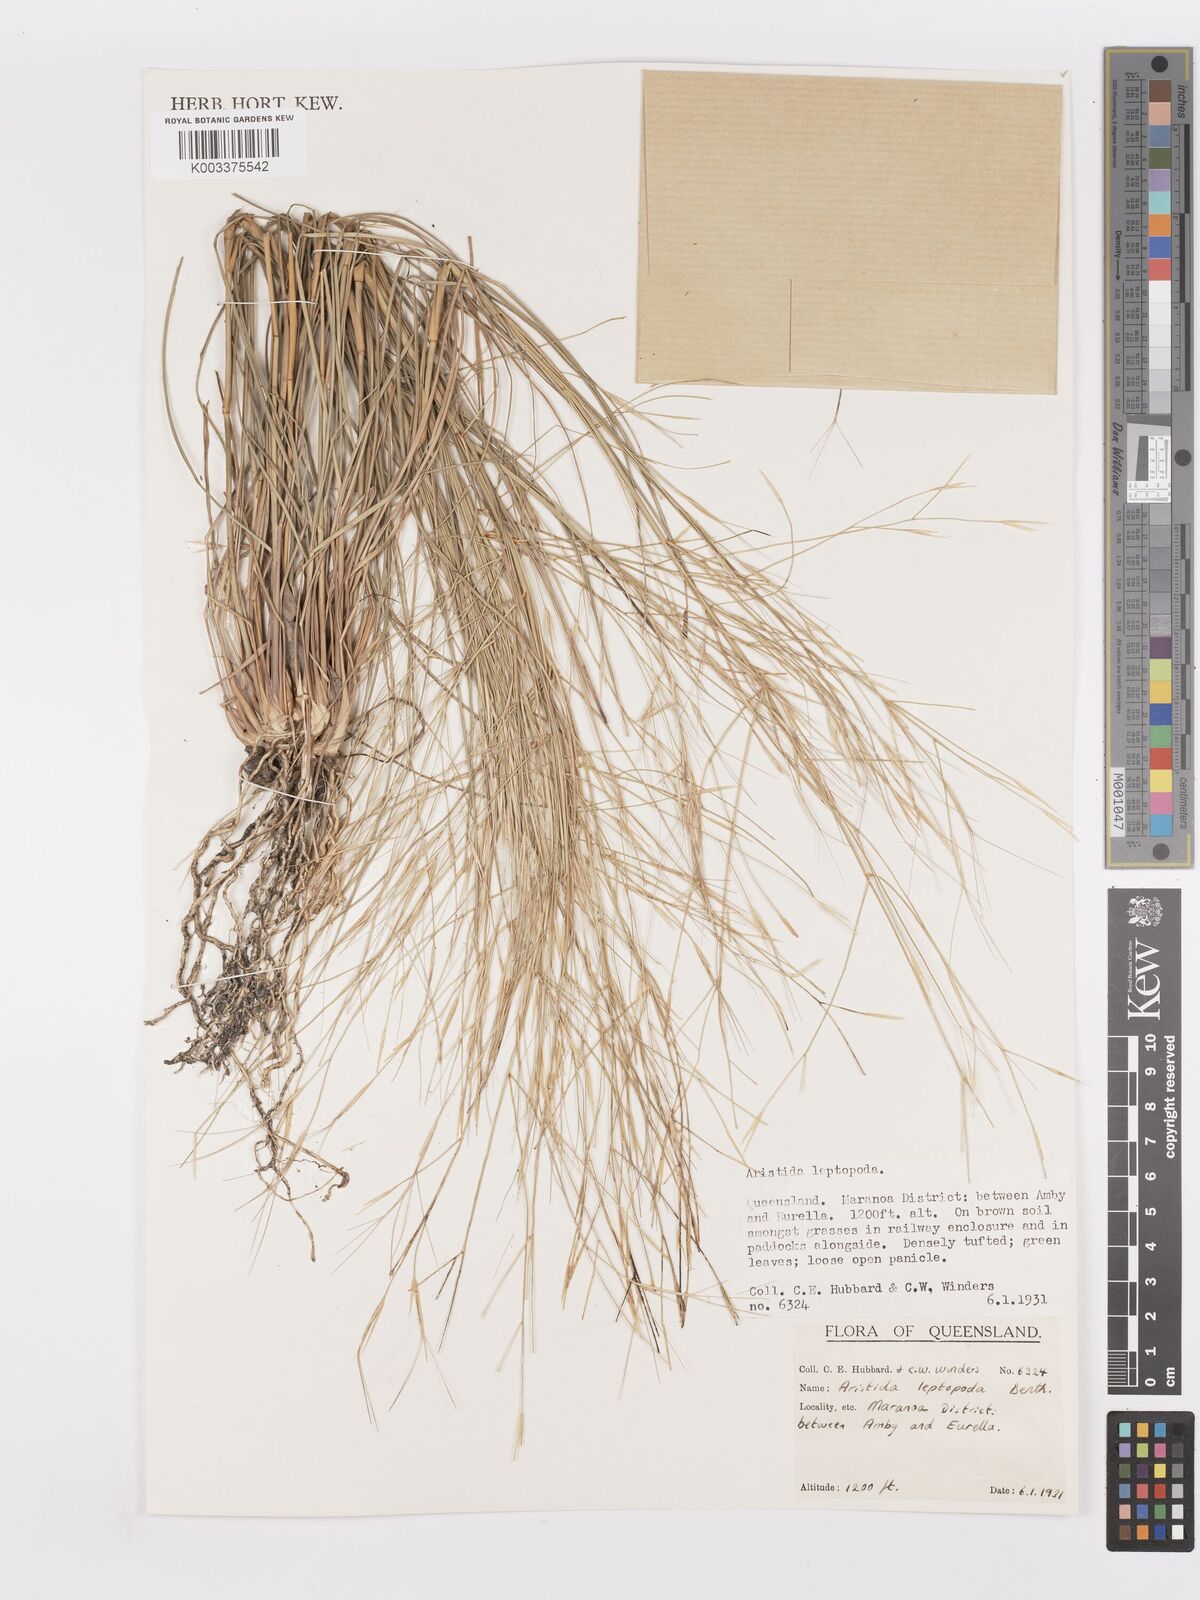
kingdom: Plantae
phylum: Tracheophyta
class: Liliopsida
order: Poales
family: Poaceae
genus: Aristida
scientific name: Aristida leptopoda
